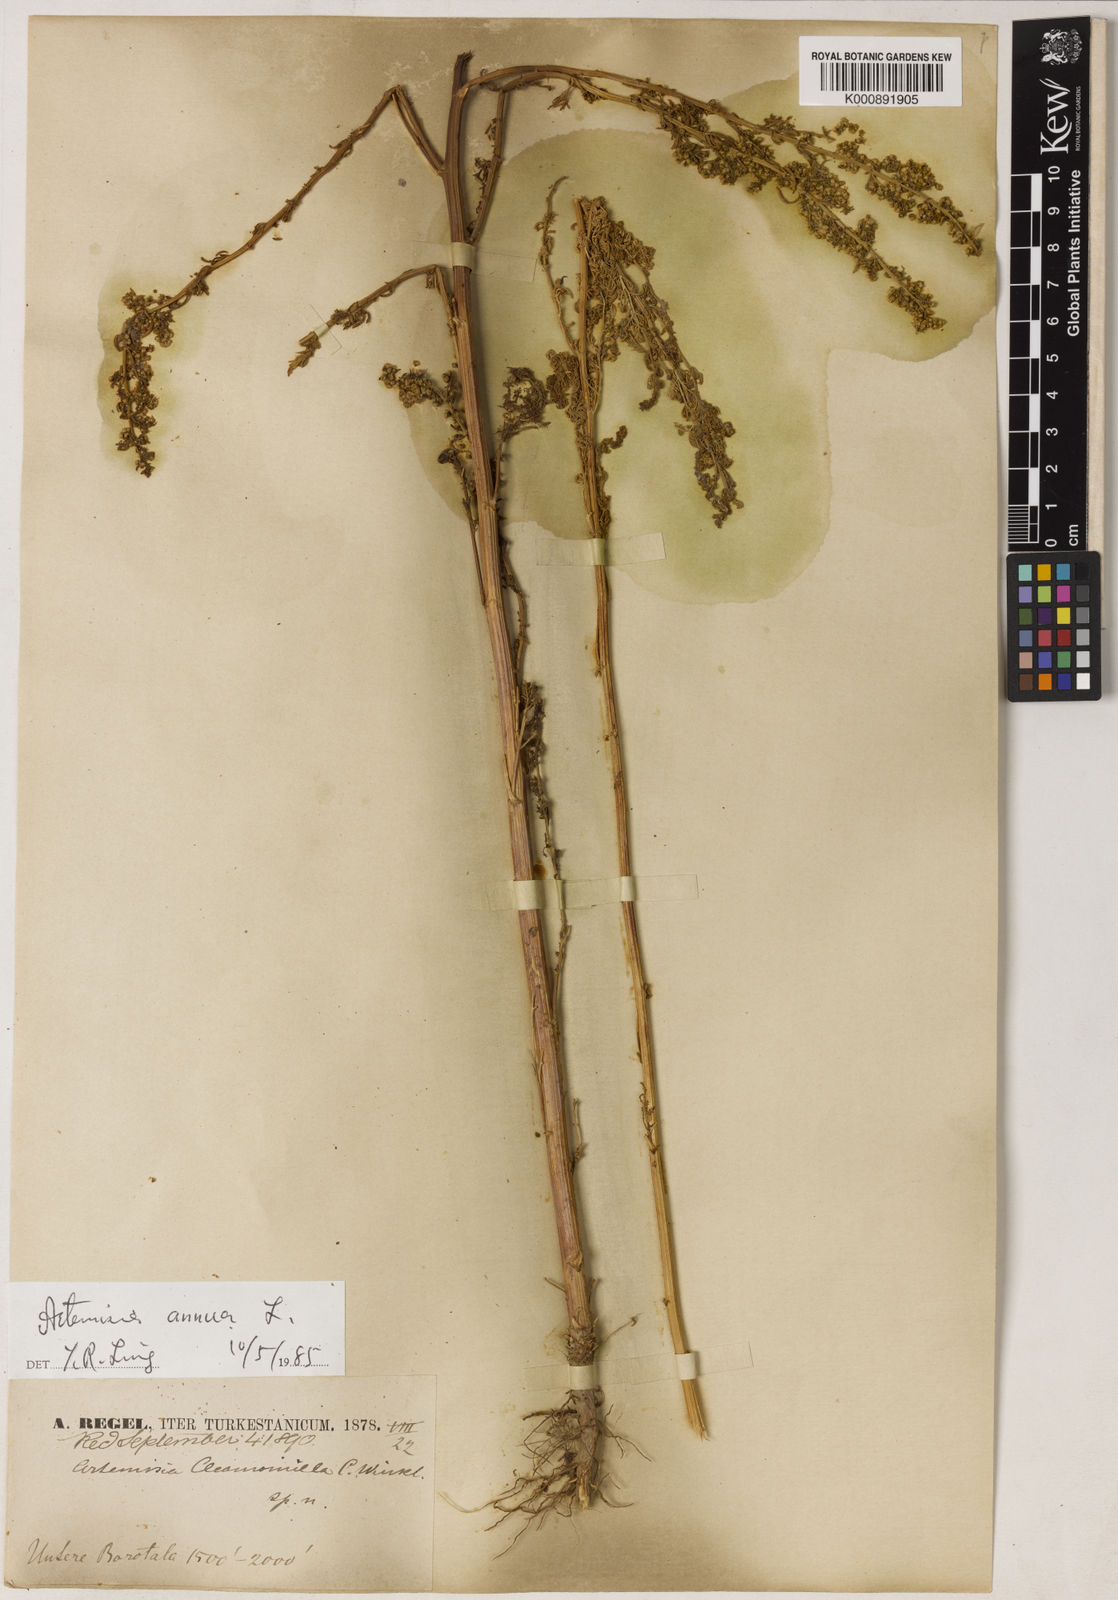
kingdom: Plantae
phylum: Tracheophyta
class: Magnoliopsida
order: Asterales
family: Asteraceae
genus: Artemisia
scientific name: Artemisia annua
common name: Sweet sagewort
